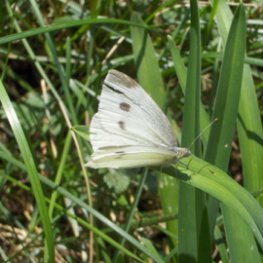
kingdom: Animalia
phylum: Arthropoda
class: Insecta
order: Lepidoptera
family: Pieridae
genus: Pieris
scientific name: Pieris rapae
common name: Cabbage White
